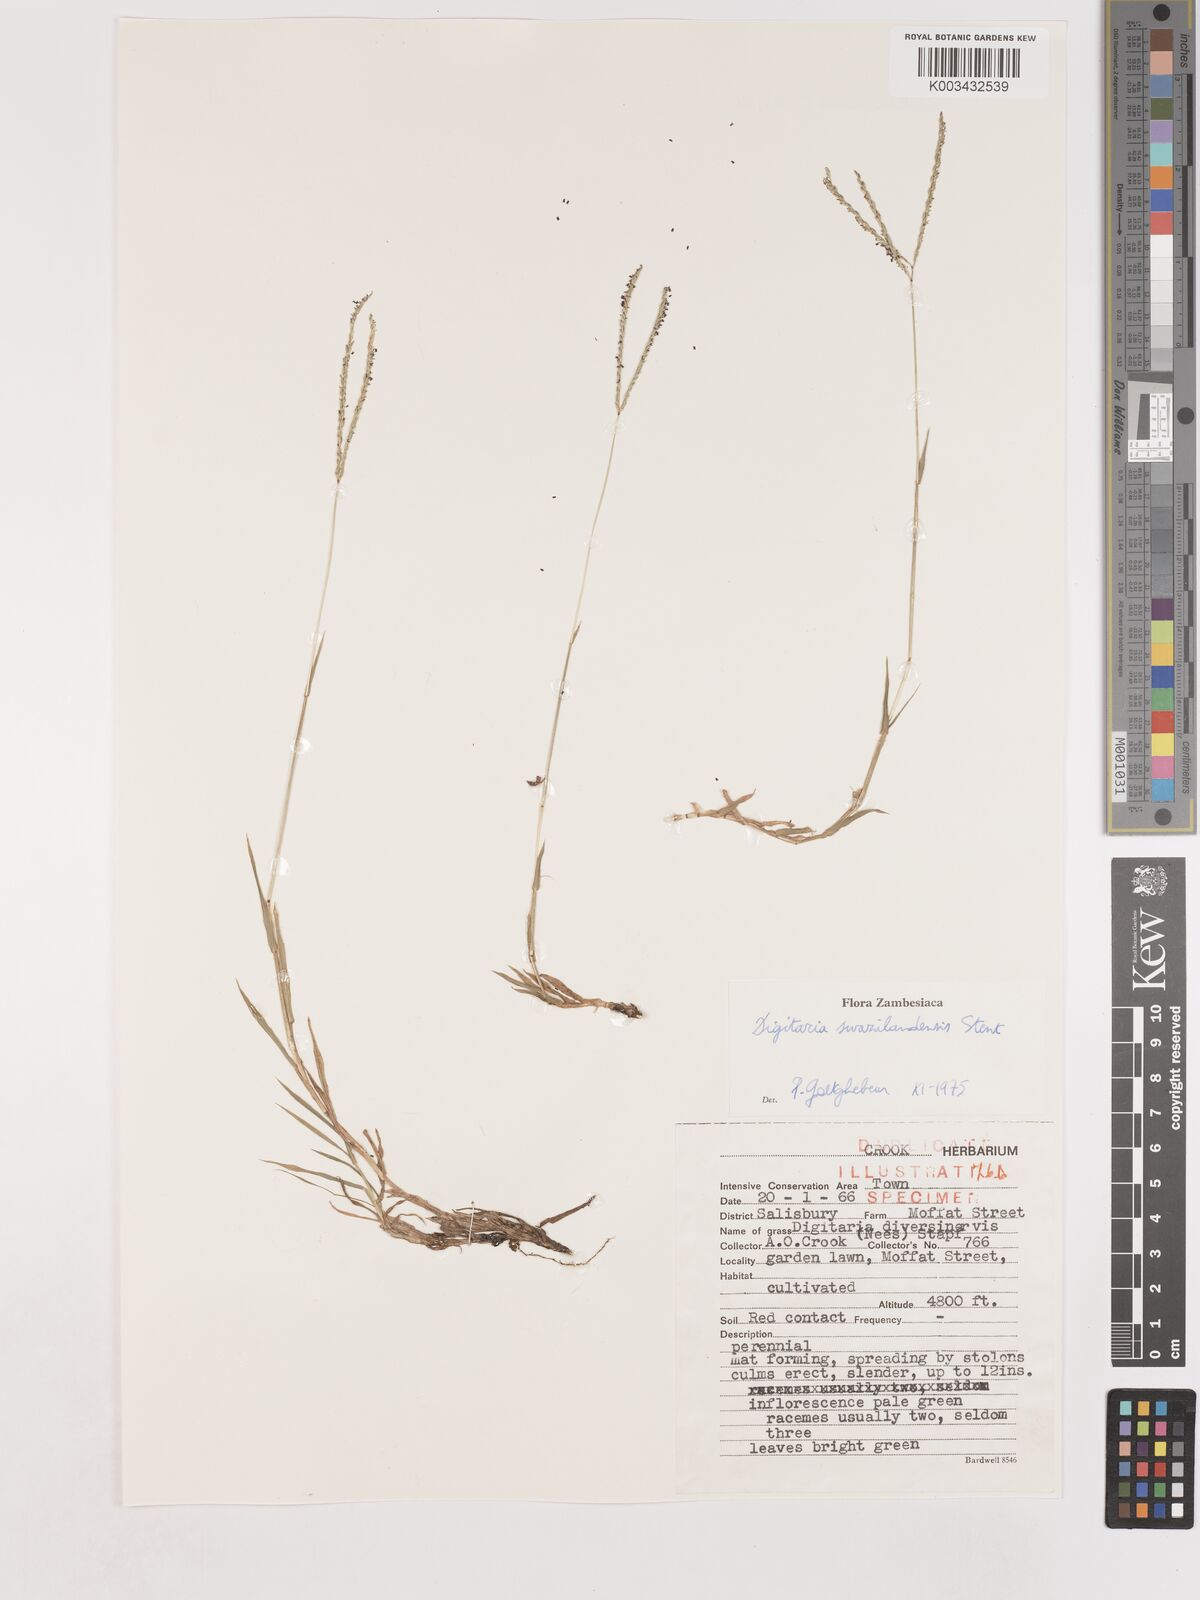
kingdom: Plantae
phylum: Tracheophyta
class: Liliopsida
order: Poales
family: Poaceae
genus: Digitaria
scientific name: Digitaria didactyla
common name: Blue couch
